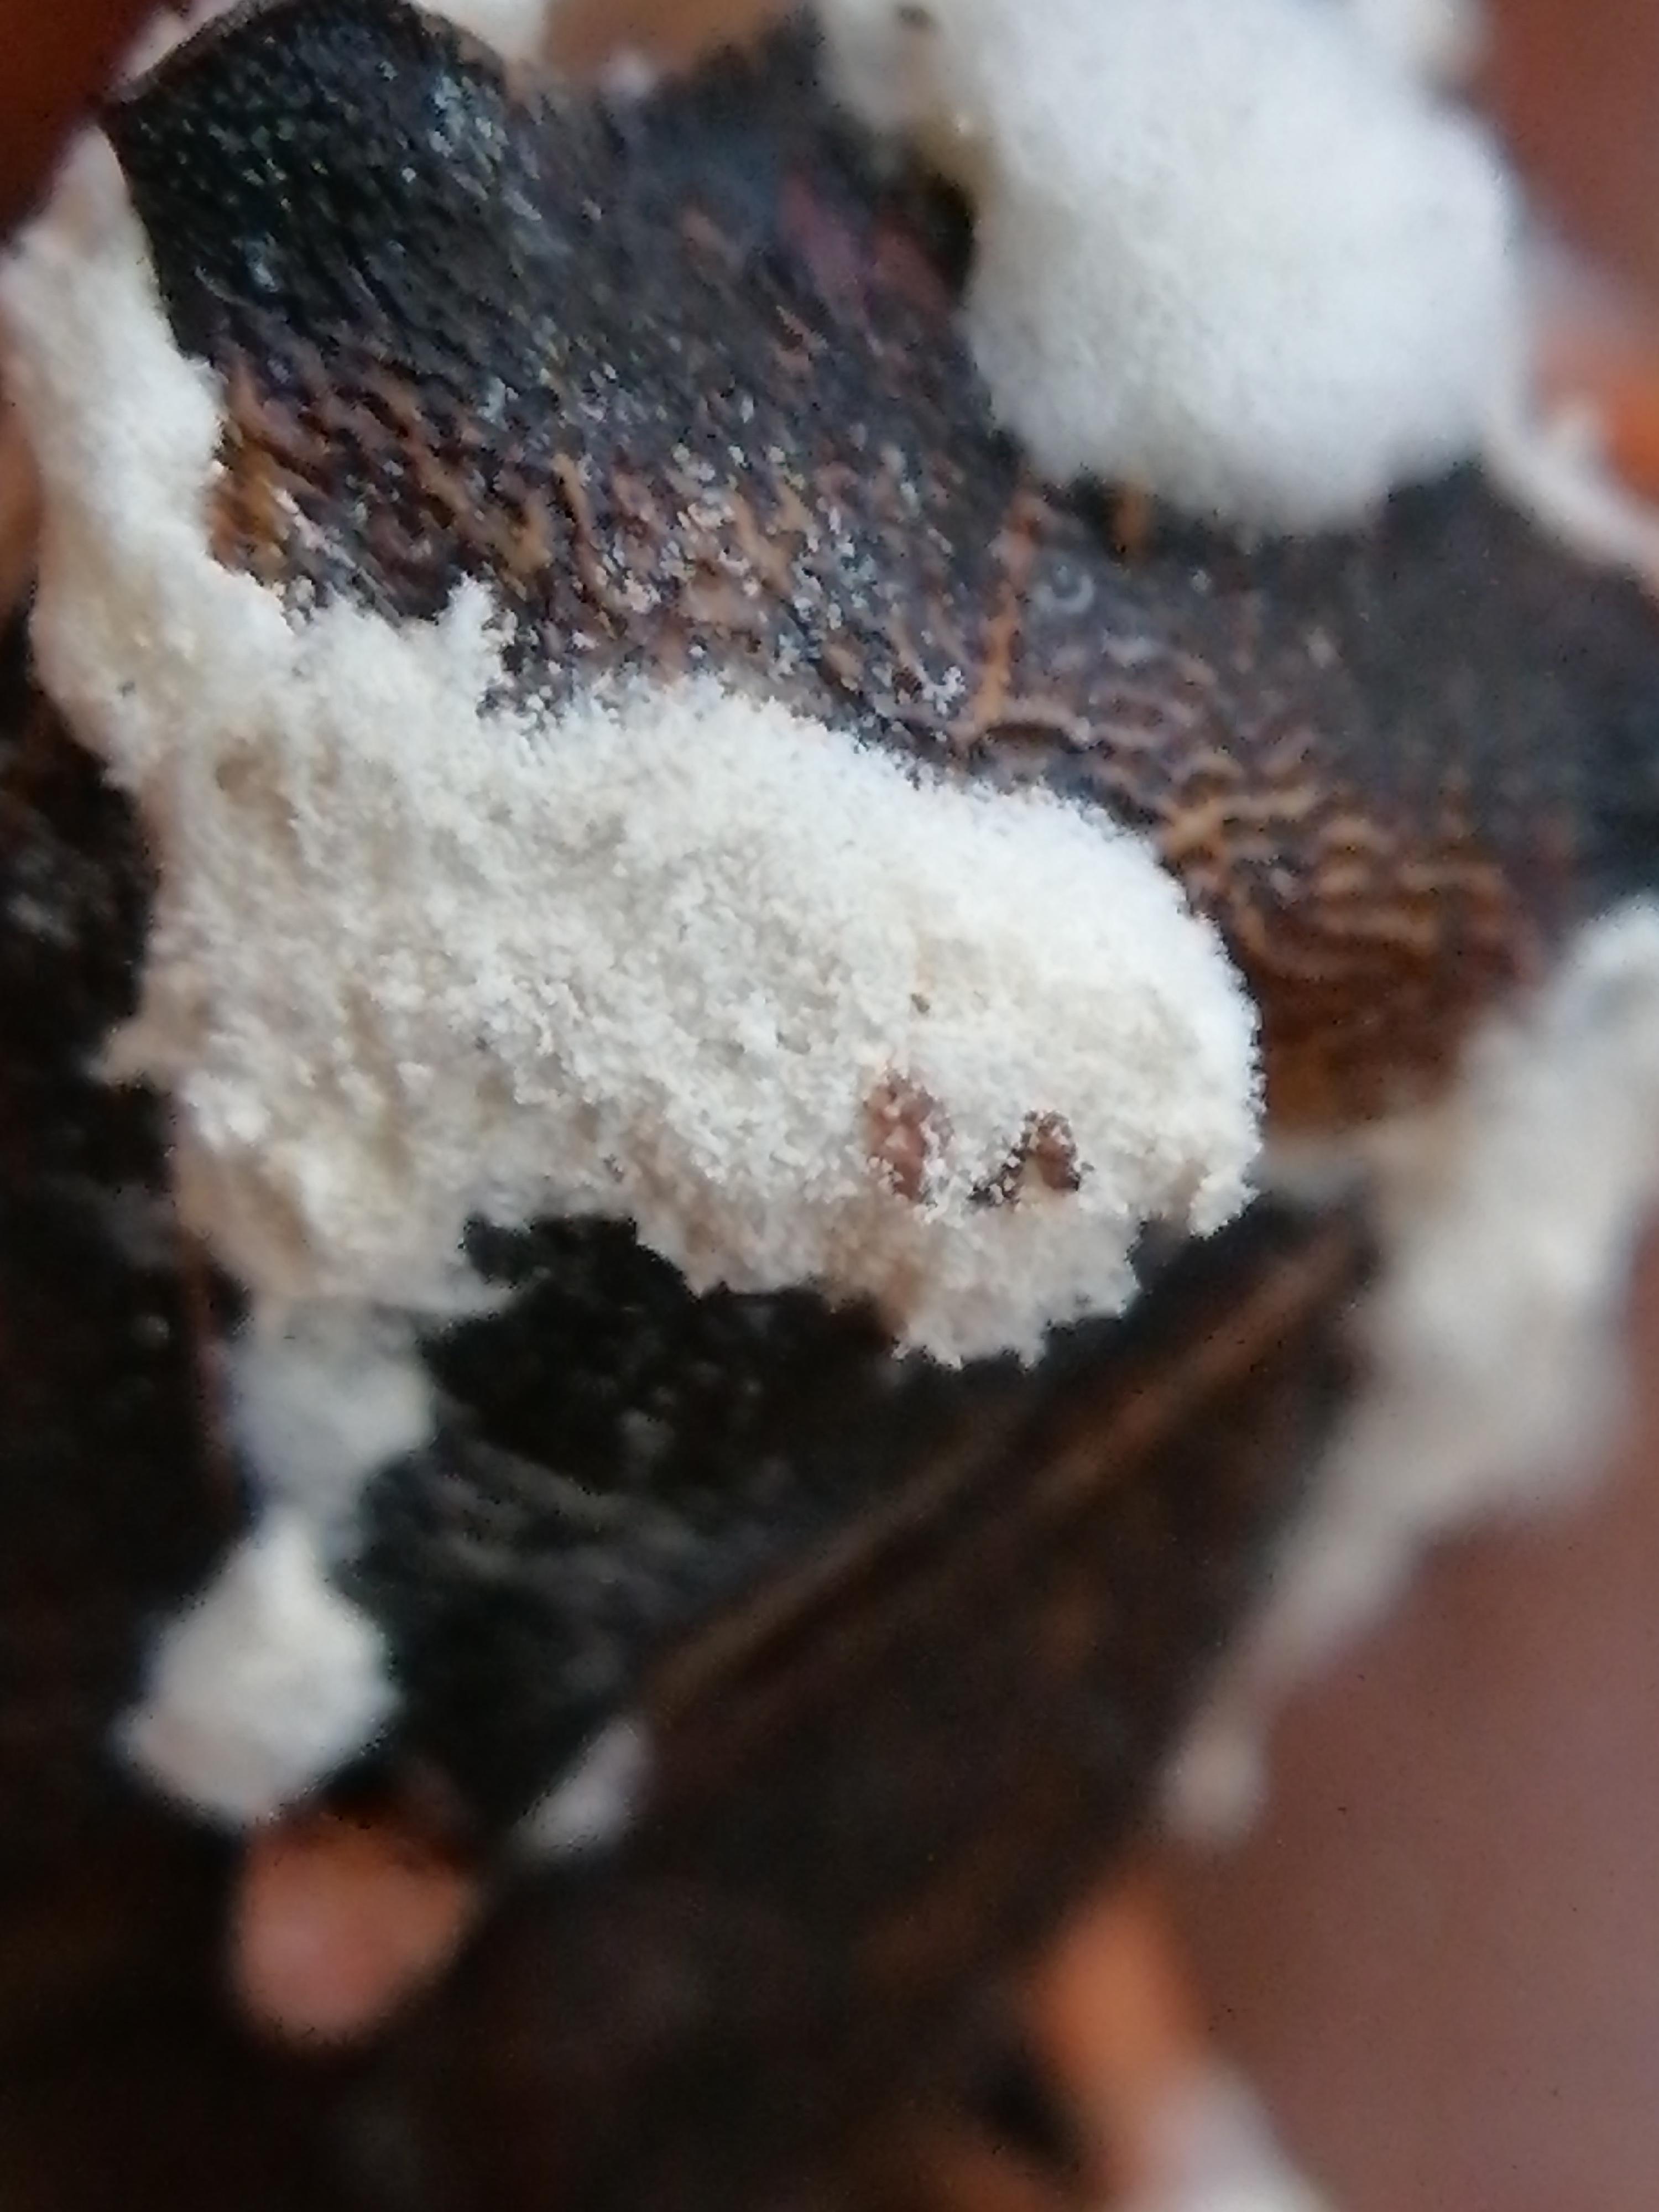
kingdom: Fungi
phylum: Ascomycota
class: Sordariomycetes
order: Hypocreales
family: Cordycipitaceae
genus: Beauveria
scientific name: Beauveria bassiana
